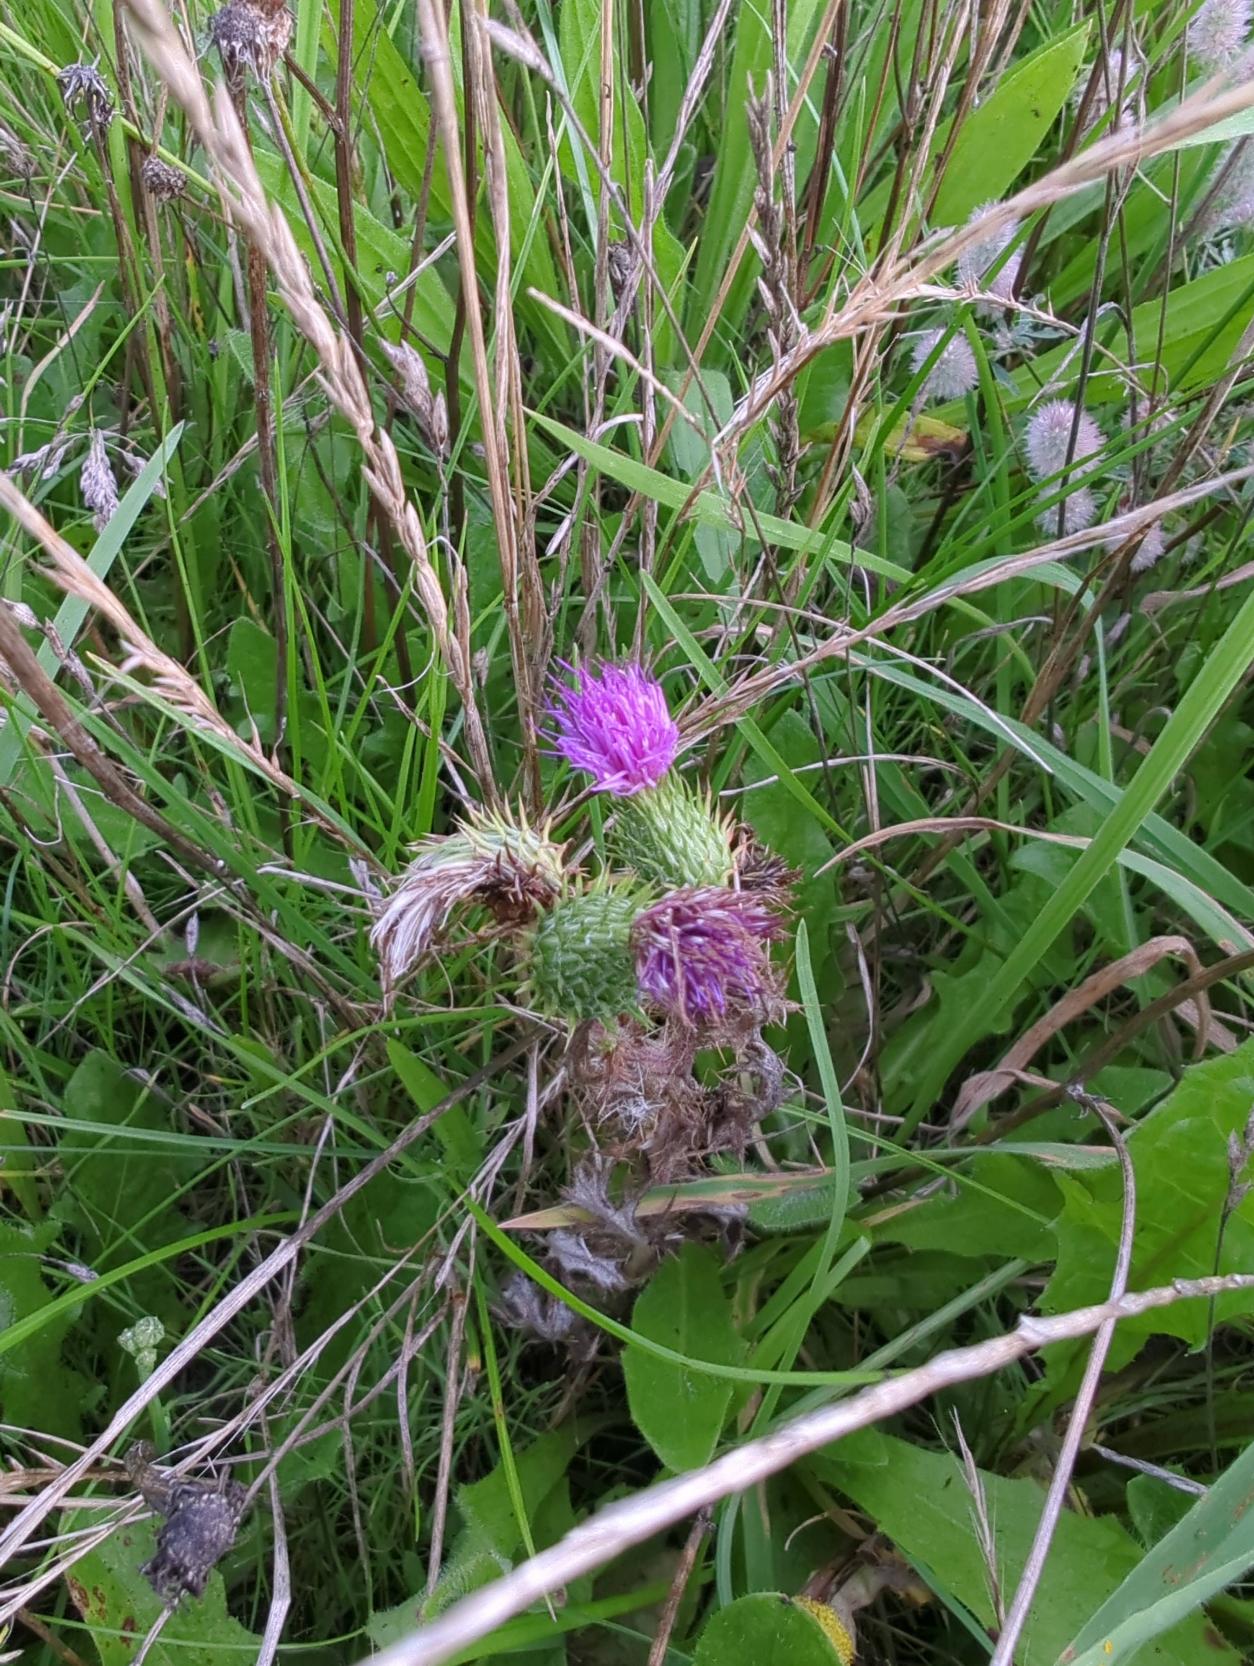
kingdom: Plantae
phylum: Tracheophyta
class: Magnoliopsida
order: Asterales
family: Asteraceae
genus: Cirsium
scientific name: Cirsium vulgare
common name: Horse-tidsel
